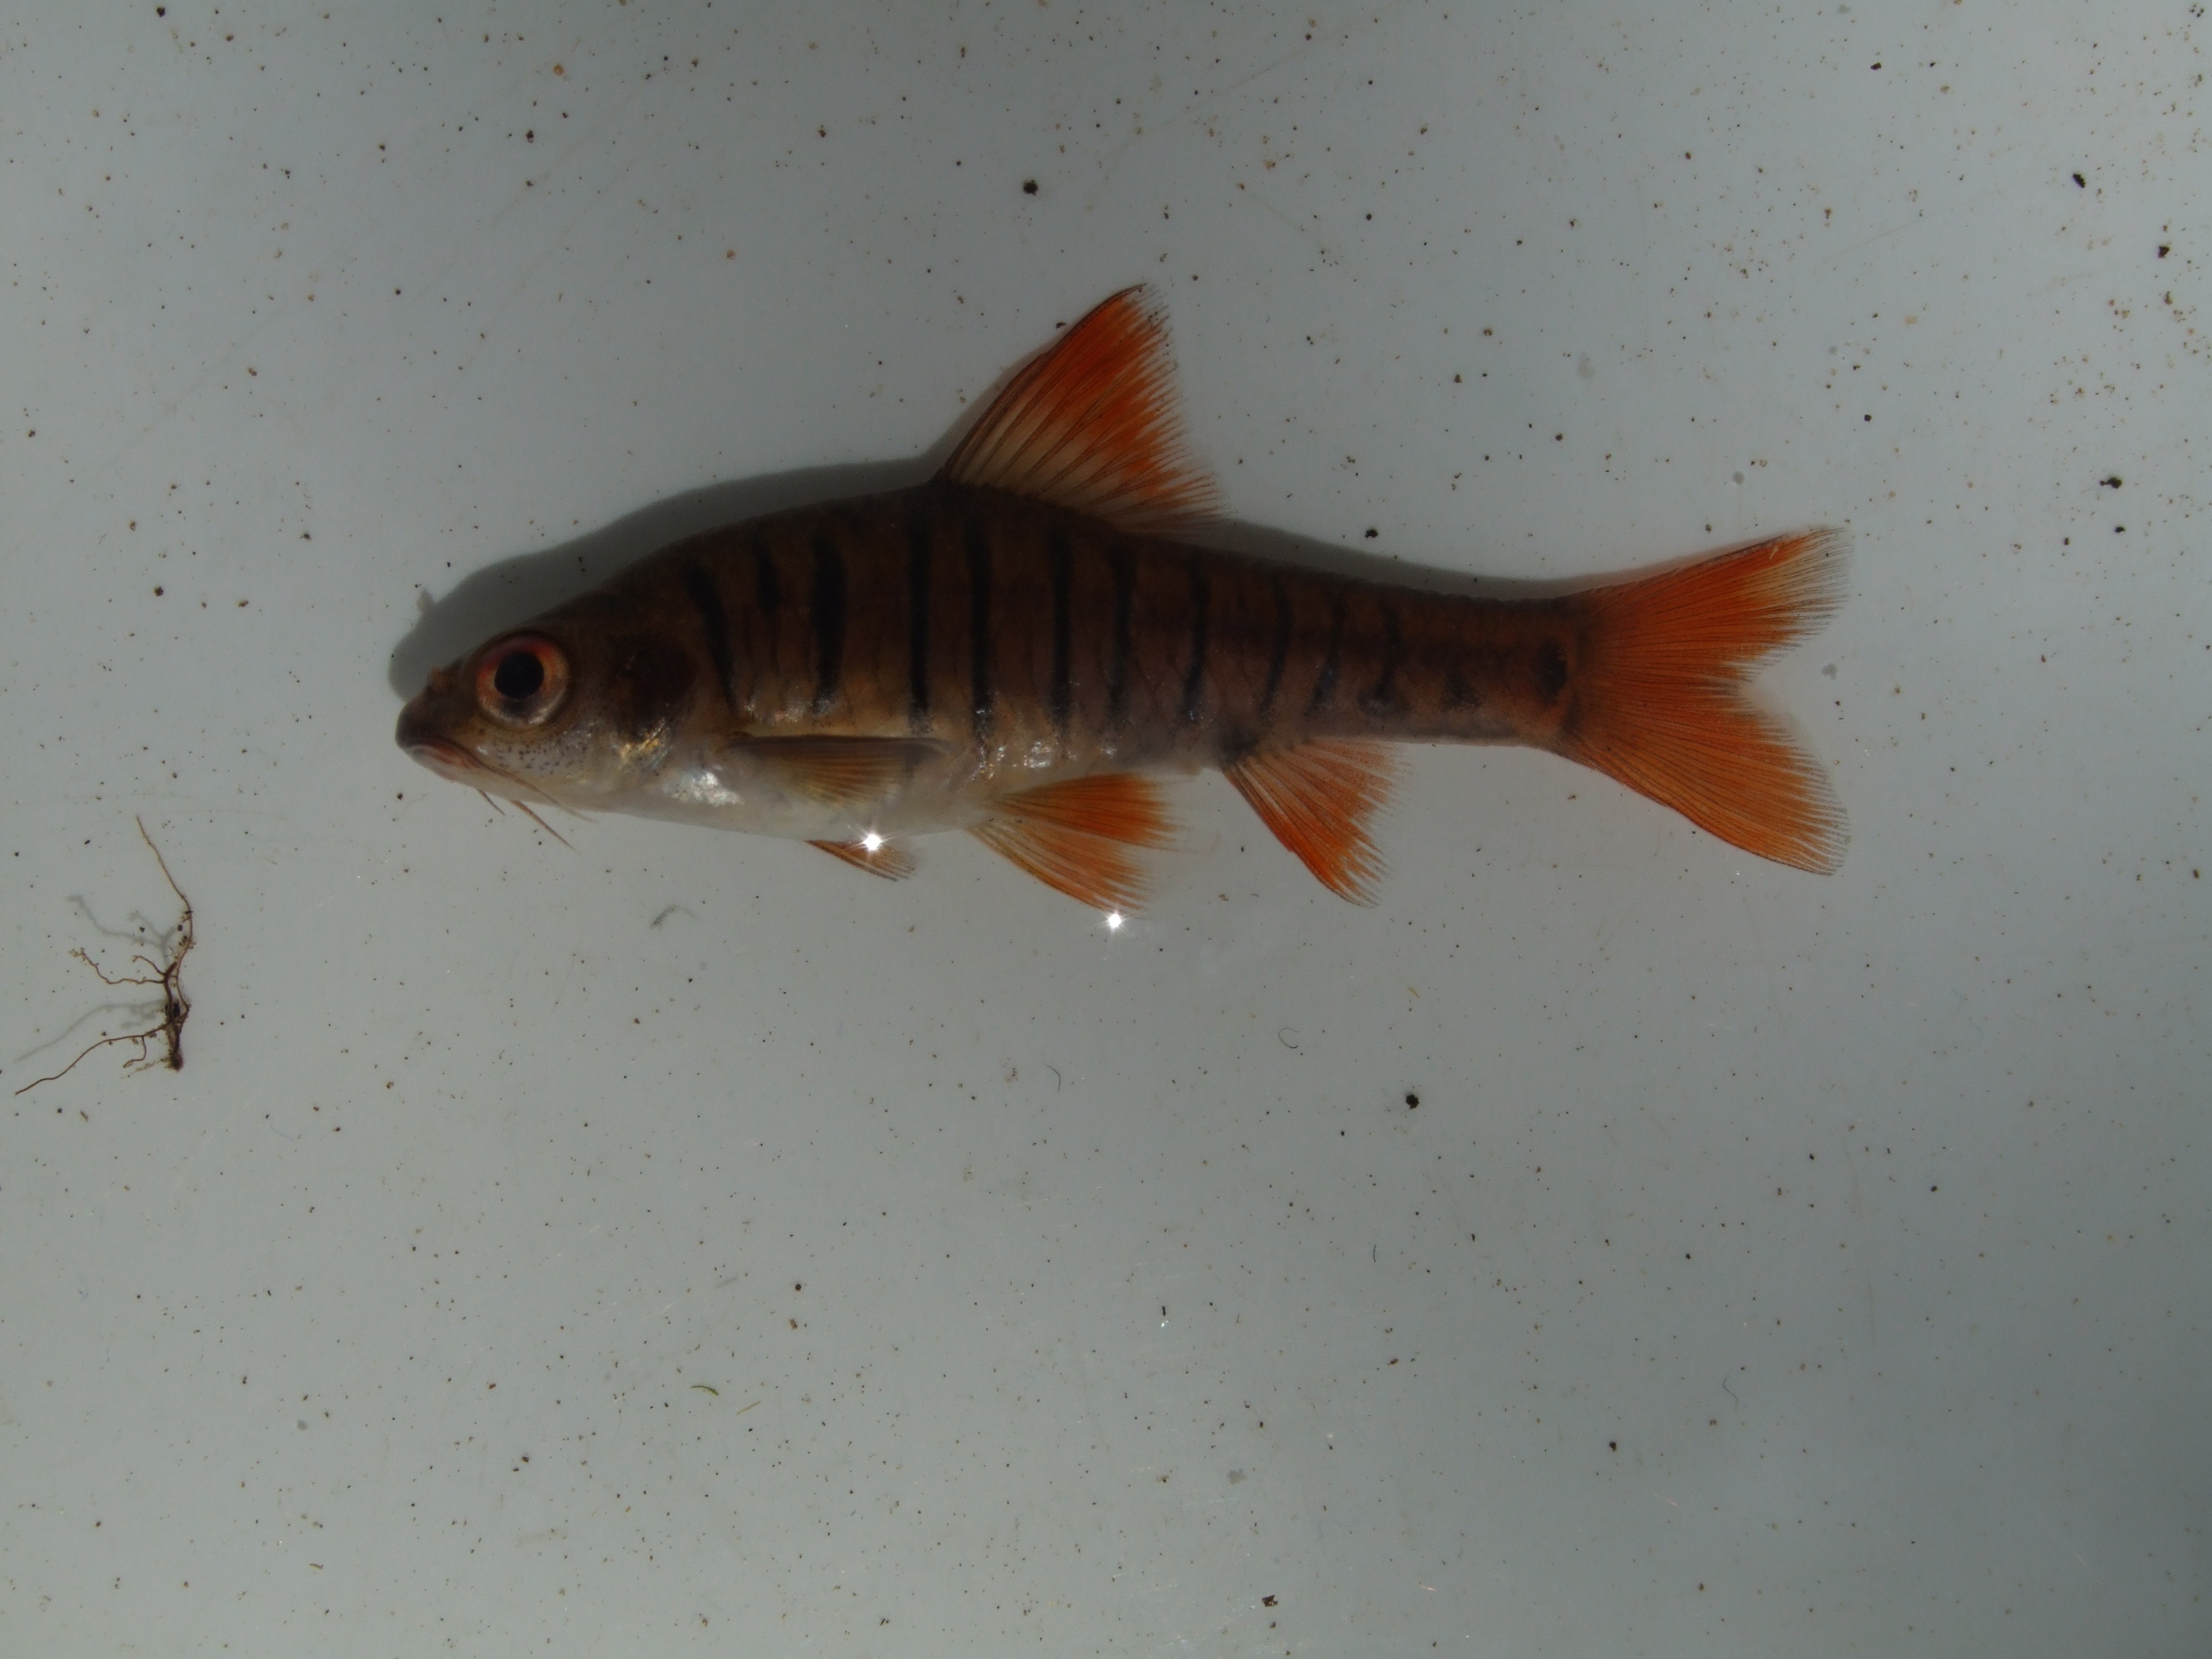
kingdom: Animalia
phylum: Chordata
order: Cypriniformes
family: Cyprinidae
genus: Enteromius
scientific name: Enteromius fasciolatus
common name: Red barb
